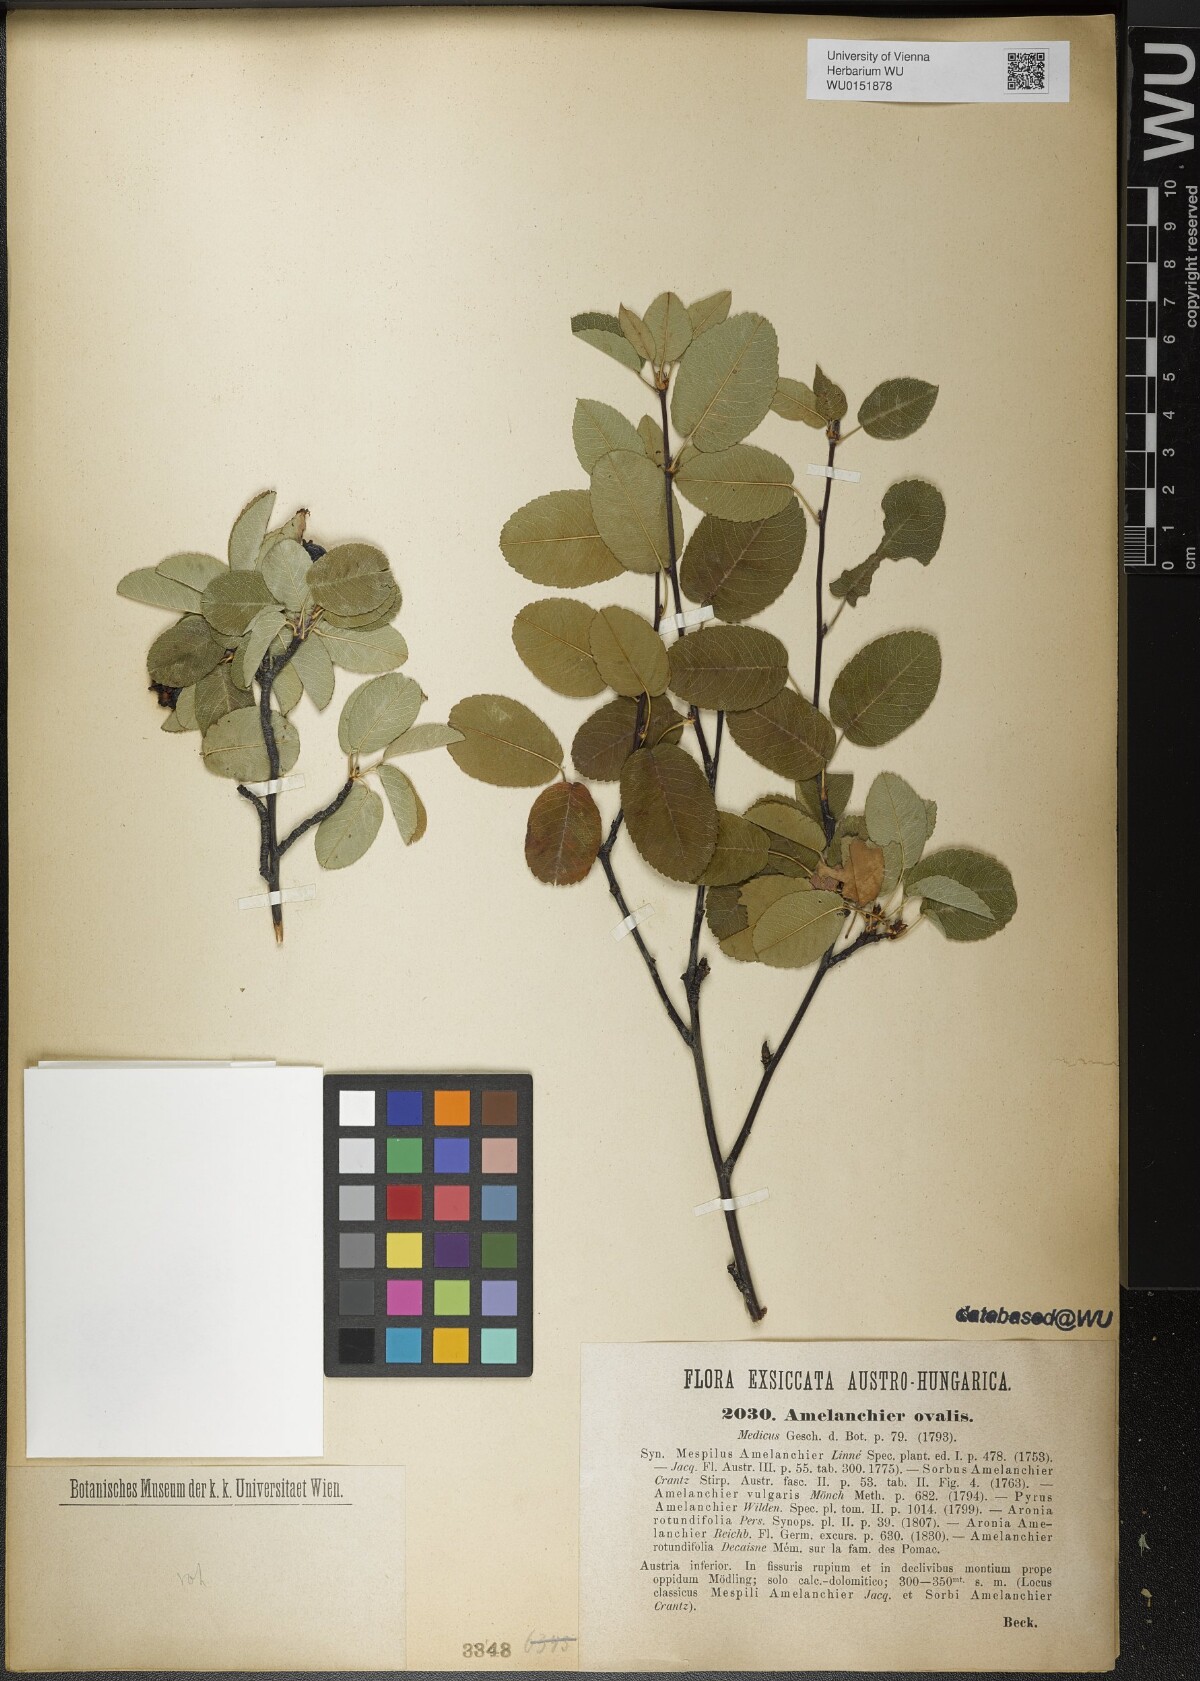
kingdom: Plantae
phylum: Tracheophyta
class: Magnoliopsida
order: Rosales
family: Rosaceae
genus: Amelanchier
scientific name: Amelanchier ovalis
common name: Serviceberry
